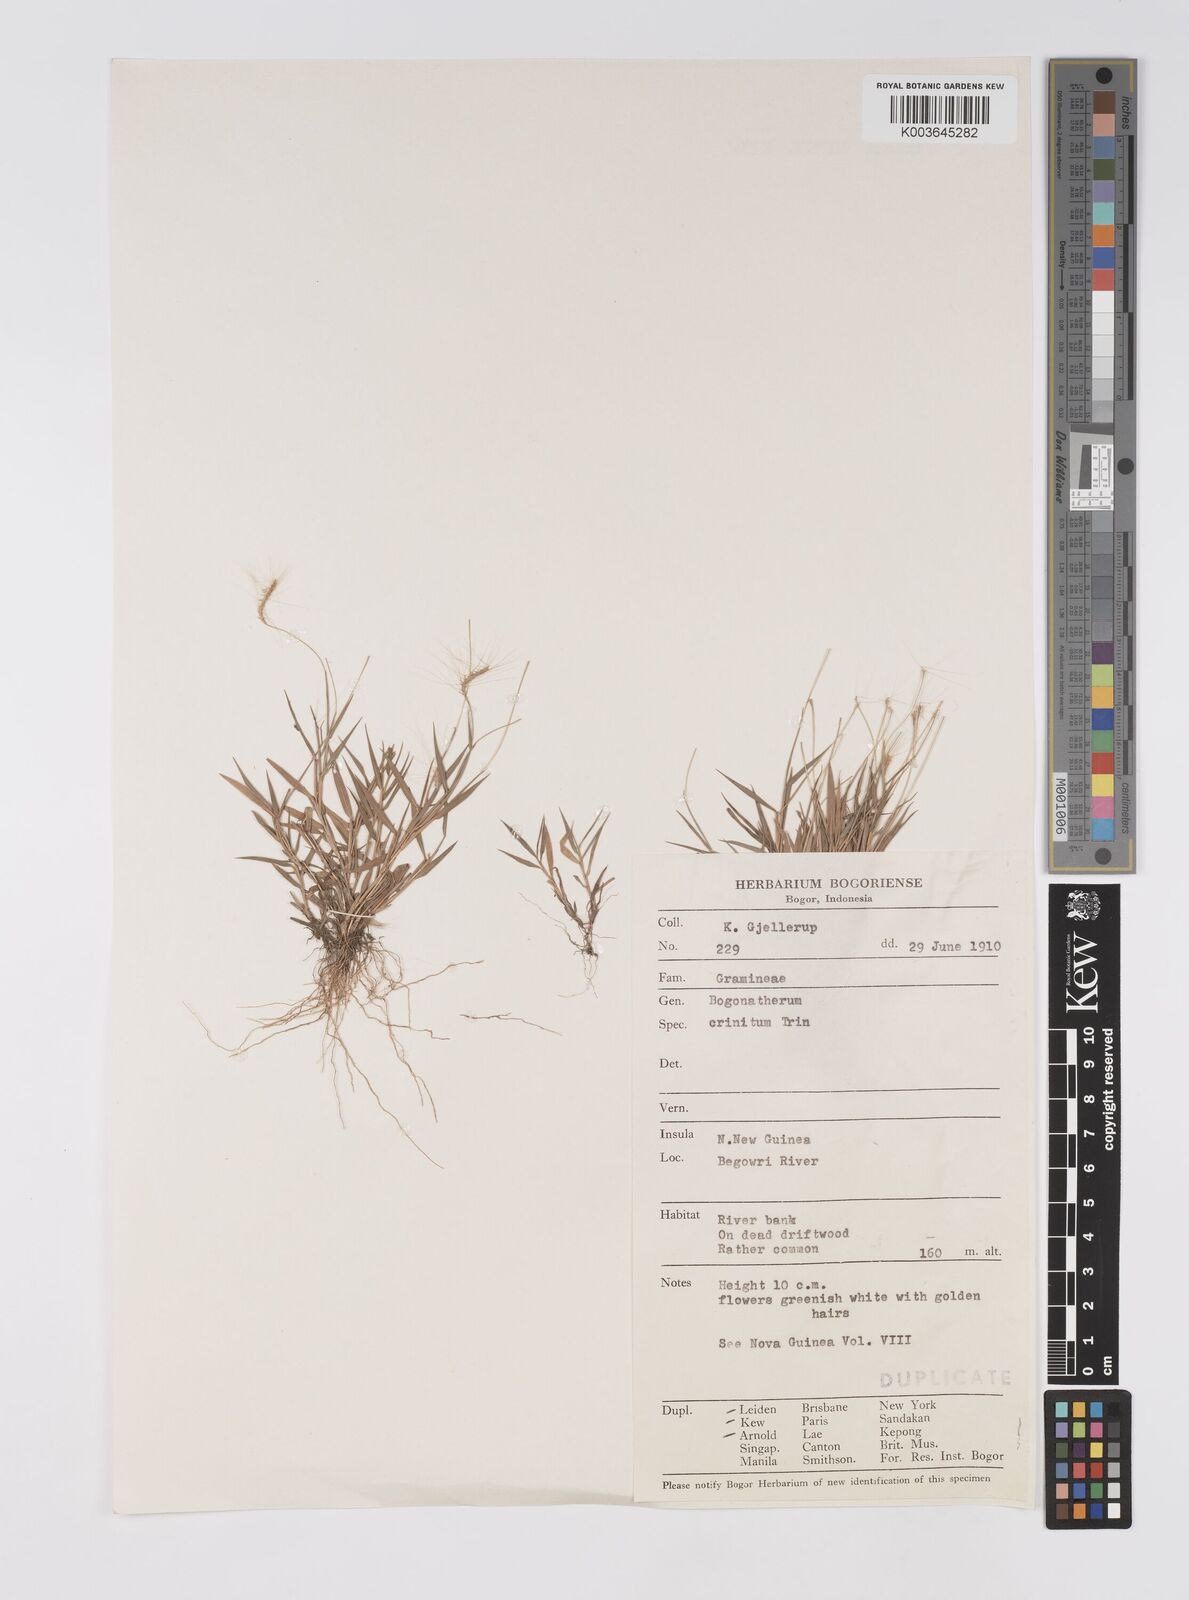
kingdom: Plantae
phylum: Tracheophyta
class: Liliopsida
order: Poales
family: Poaceae
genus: Pogonatherum
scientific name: Pogonatherum crinitum
